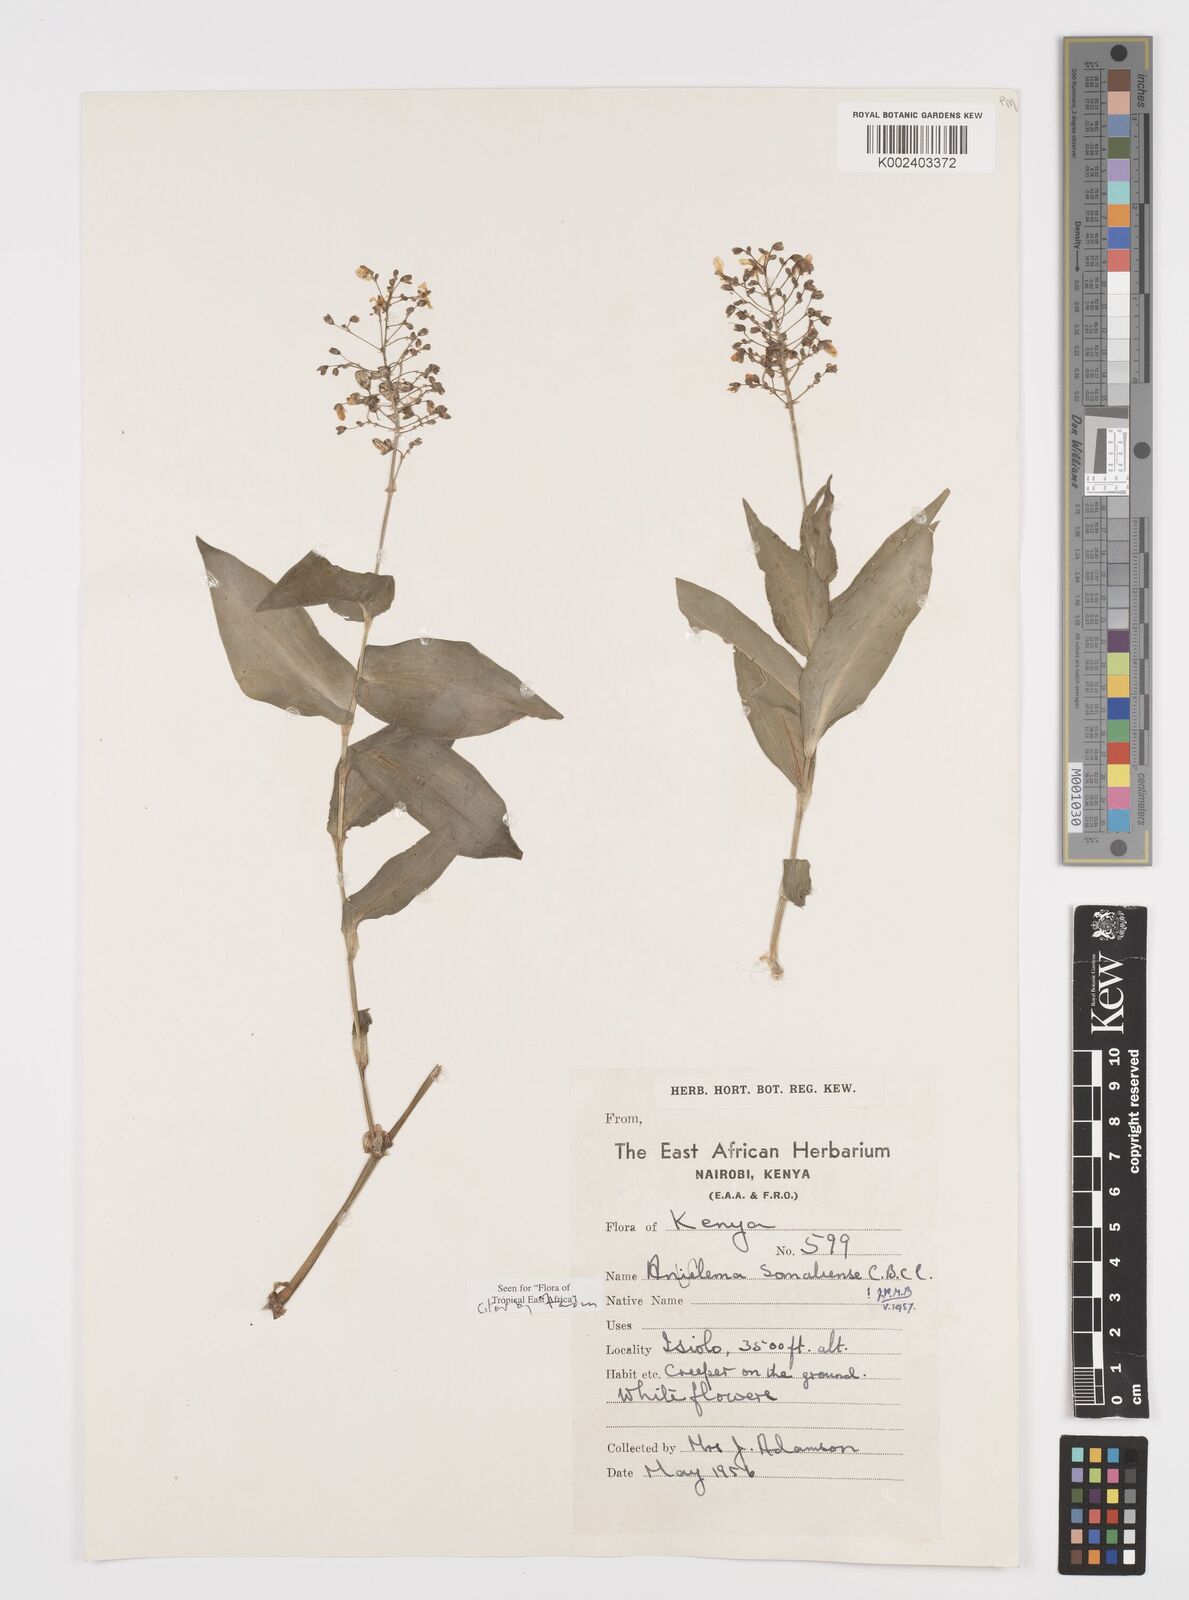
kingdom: Plantae
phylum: Tracheophyta
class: Liliopsida
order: Commelinales
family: Commelinaceae
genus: Aneilema
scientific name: Aneilema somaliense
